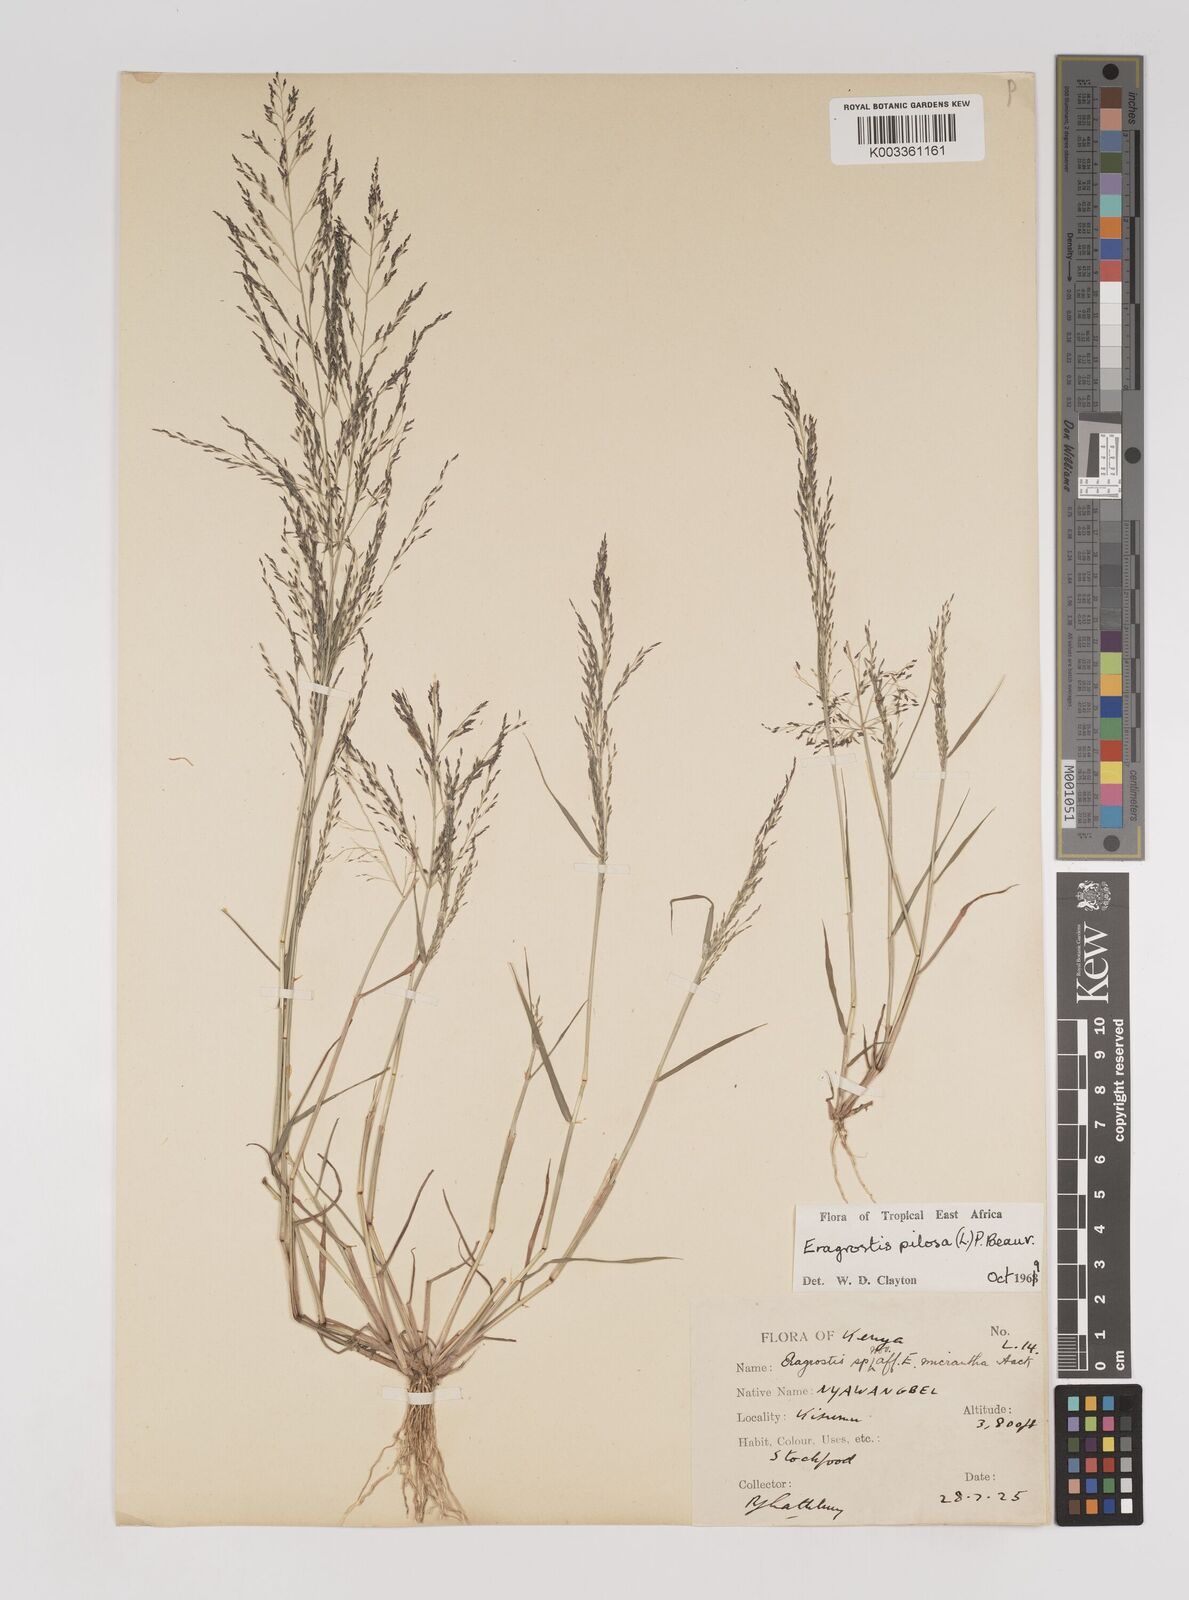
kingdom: Plantae
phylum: Tracheophyta
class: Liliopsida
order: Poales
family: Poaceae
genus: Eragrostis
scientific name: Eragrostis pilosa
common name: Indian lovegrass
